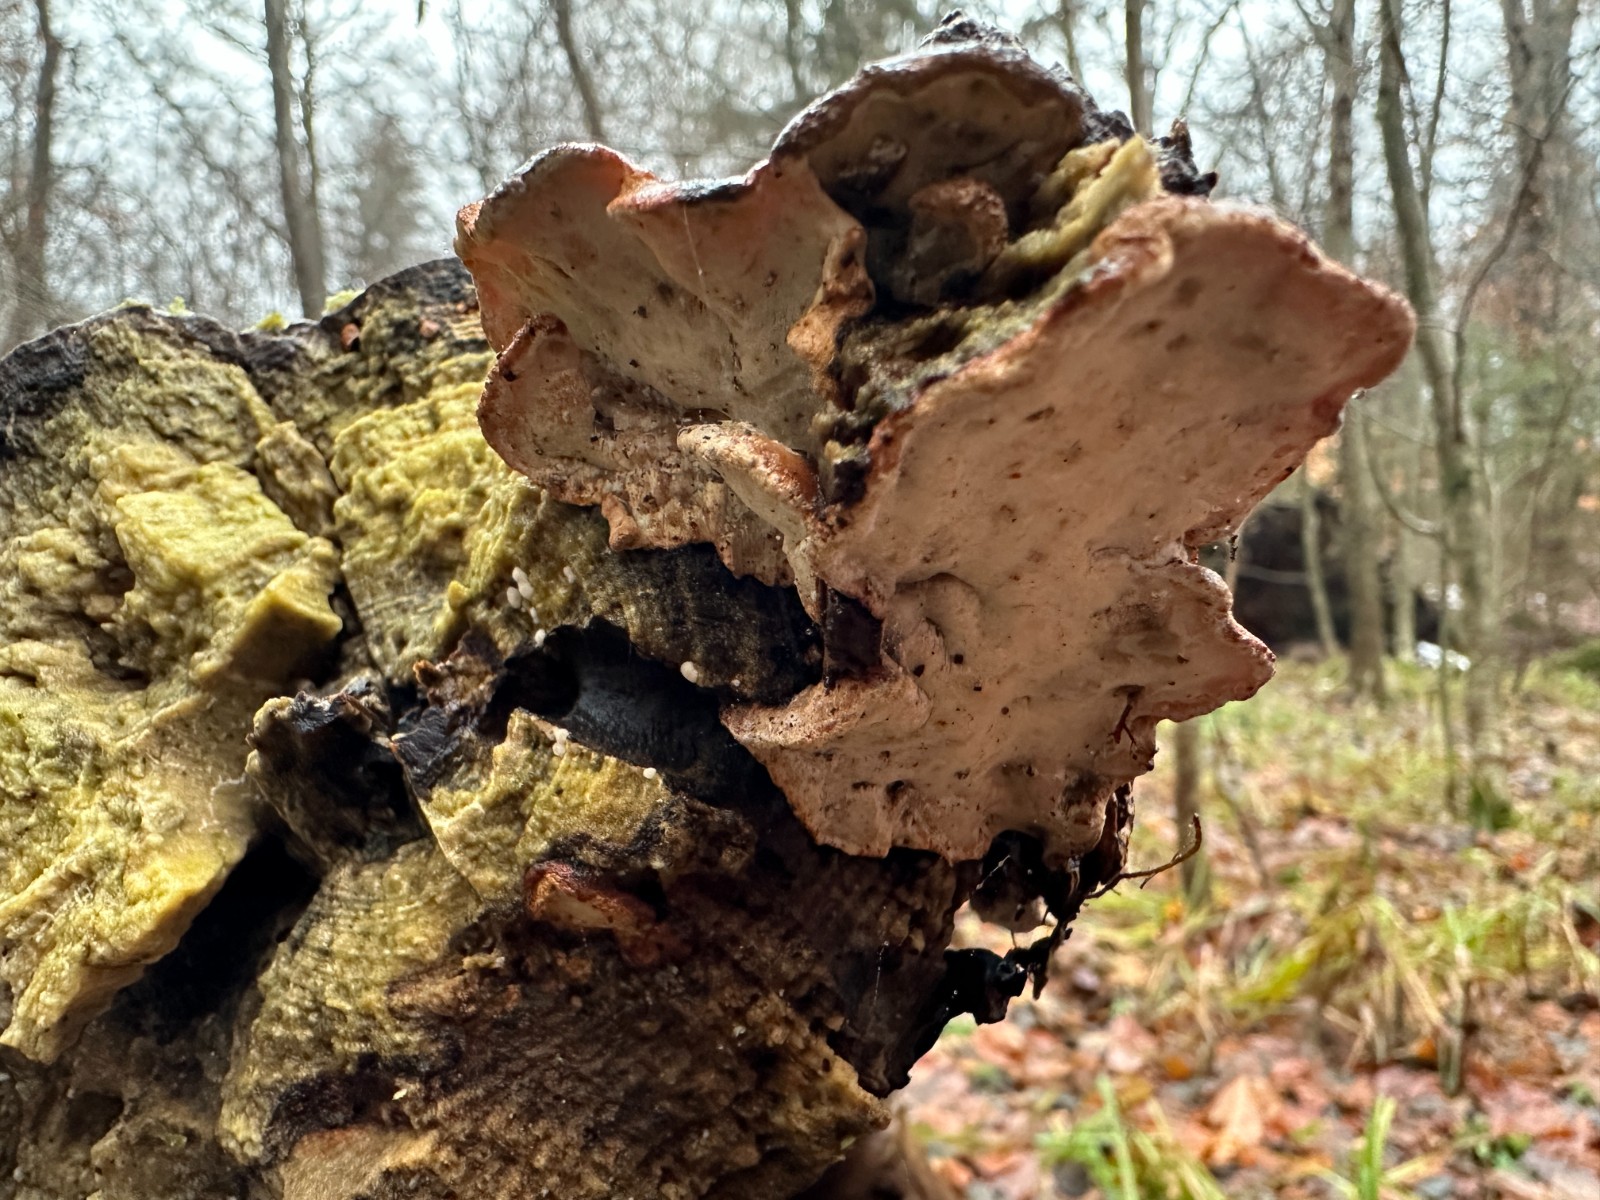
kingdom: Fungi
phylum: Basidiomycota
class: Agaricomycetes
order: Polyporales
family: Incrustoporiaceae
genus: Skeletocutis
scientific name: Skeletocutis nemoralis
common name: stor krystalporesvamp
